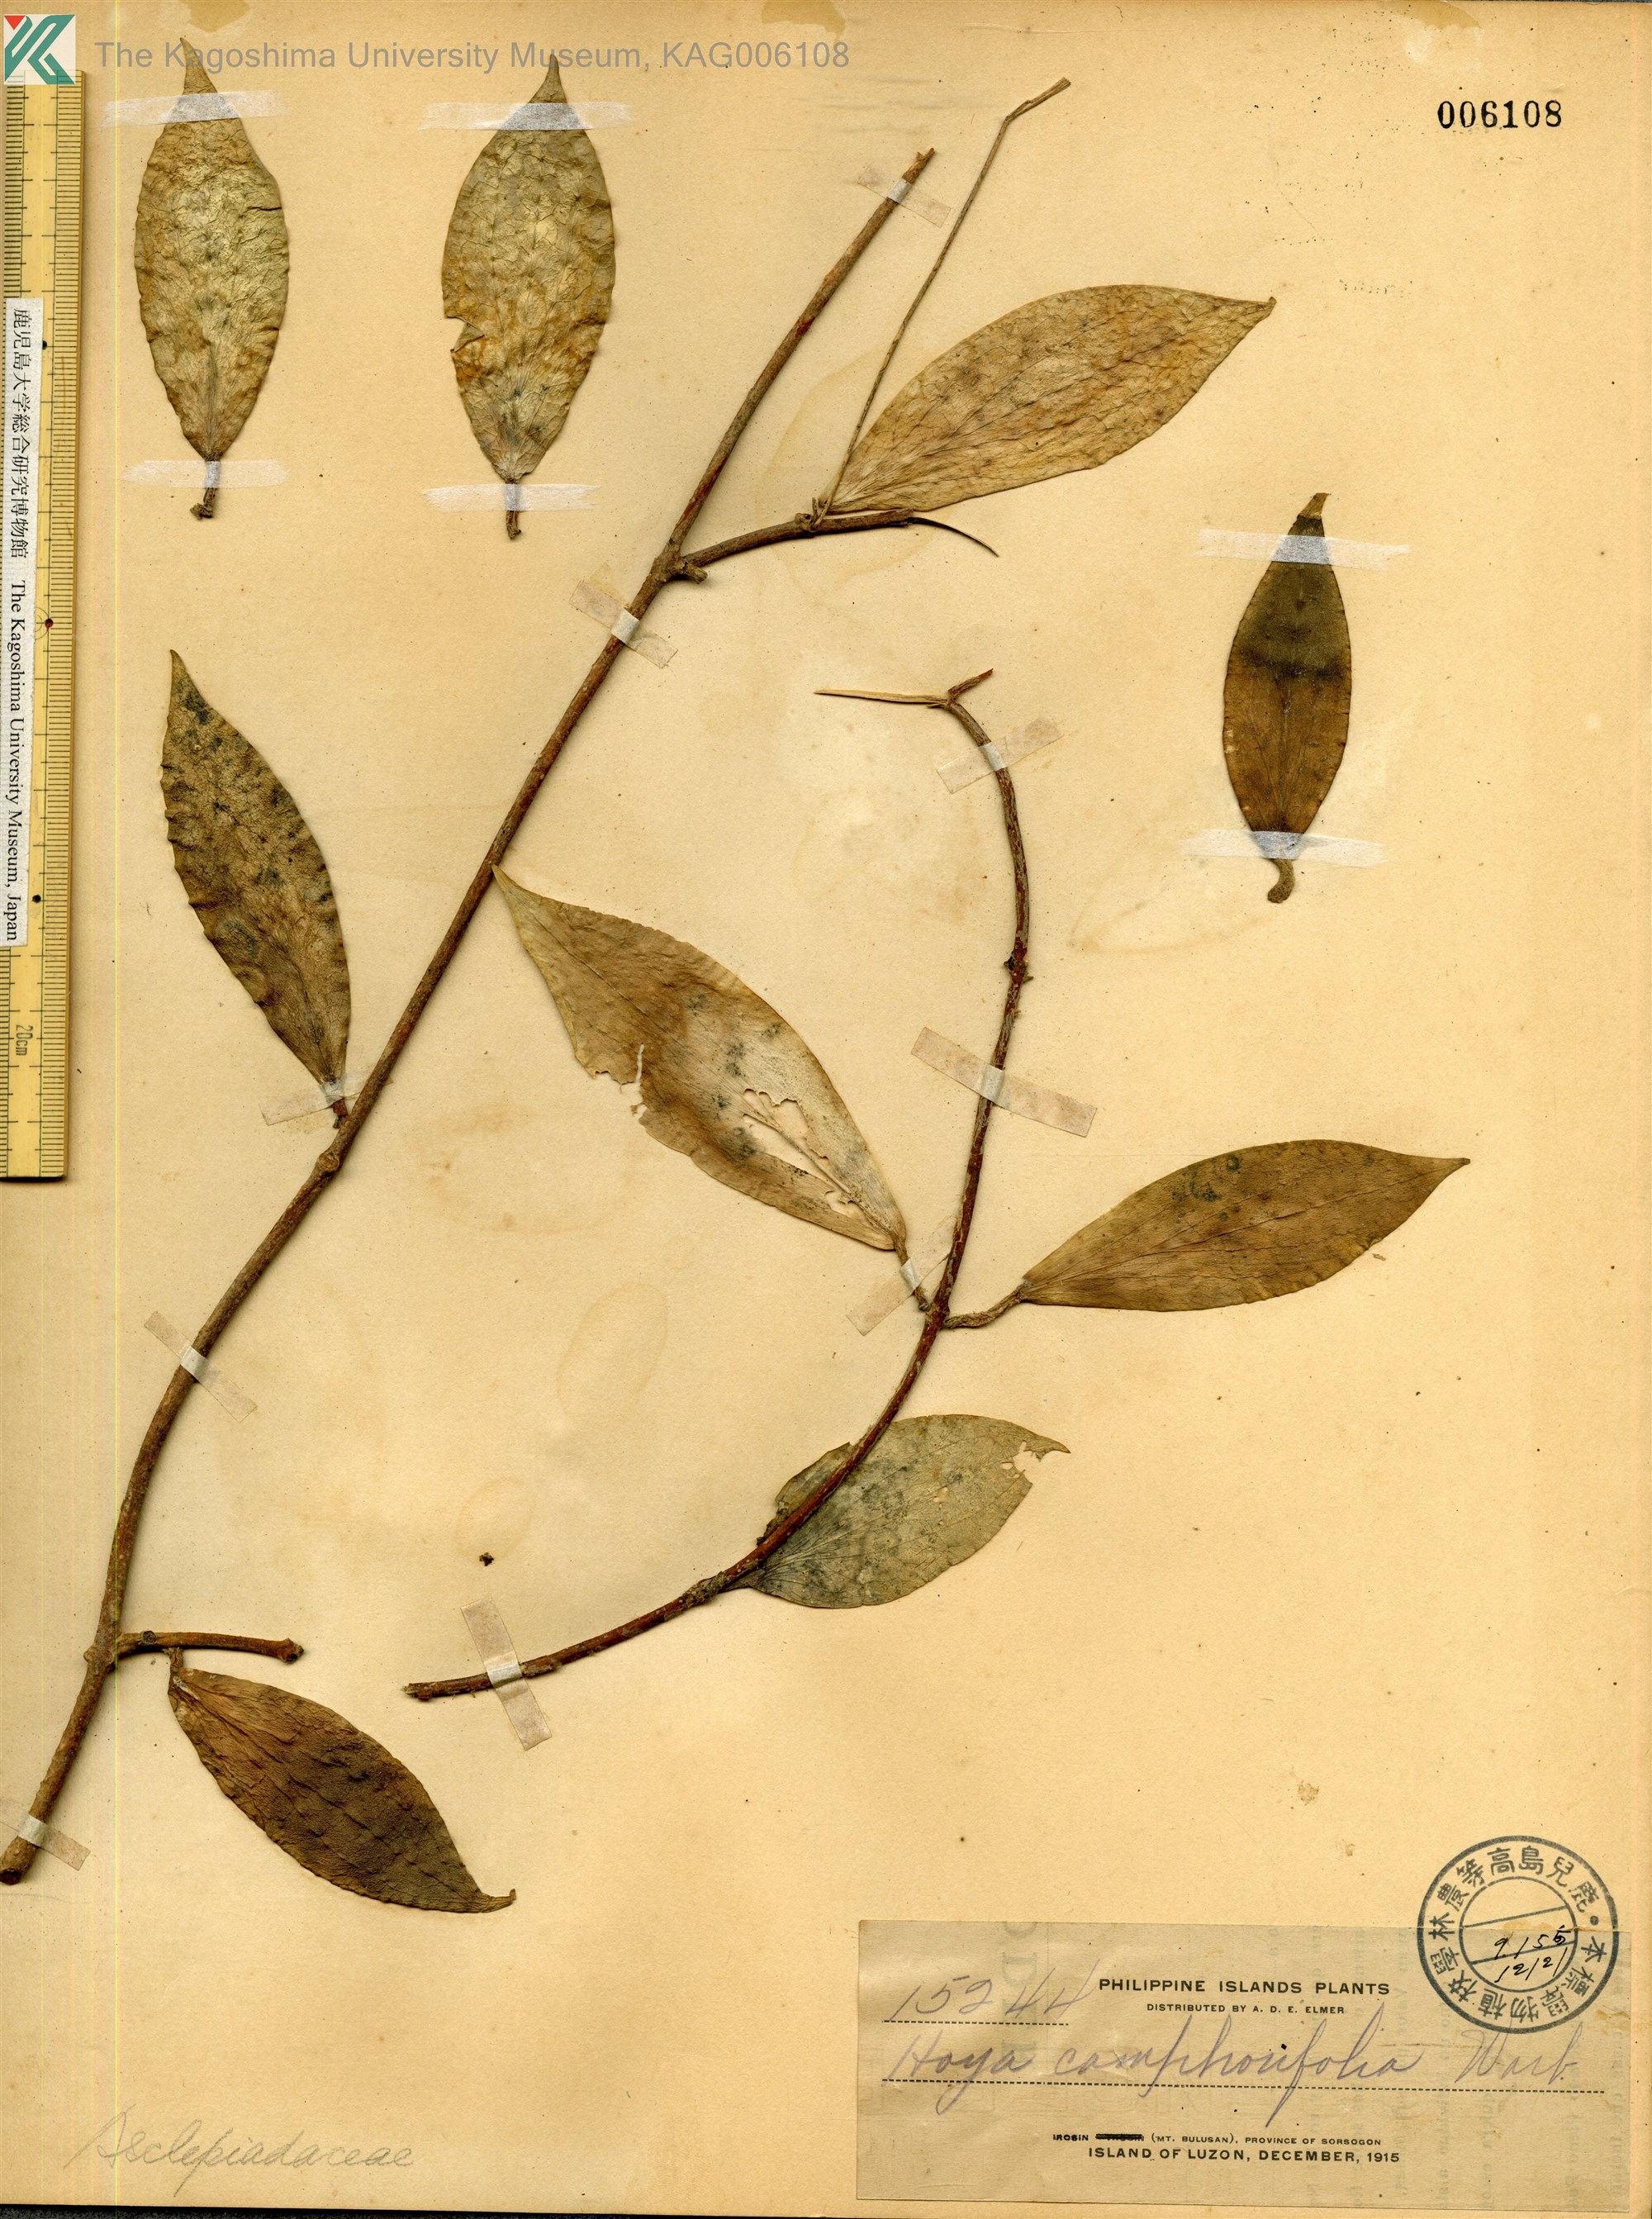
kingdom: Plantae
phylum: Tracheophyta
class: Magnoliopsida
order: Gentianales
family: Apocynaceae
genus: Hoya
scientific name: Hoya camphorifolia
